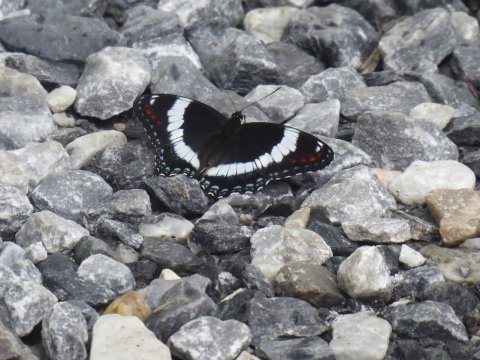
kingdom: Animalia
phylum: Arthropoda
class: Insecta
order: Lepidoptera
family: Nymphalidae
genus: Limenitis
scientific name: Limenitis arthemis
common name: Red-spotted Admiral
